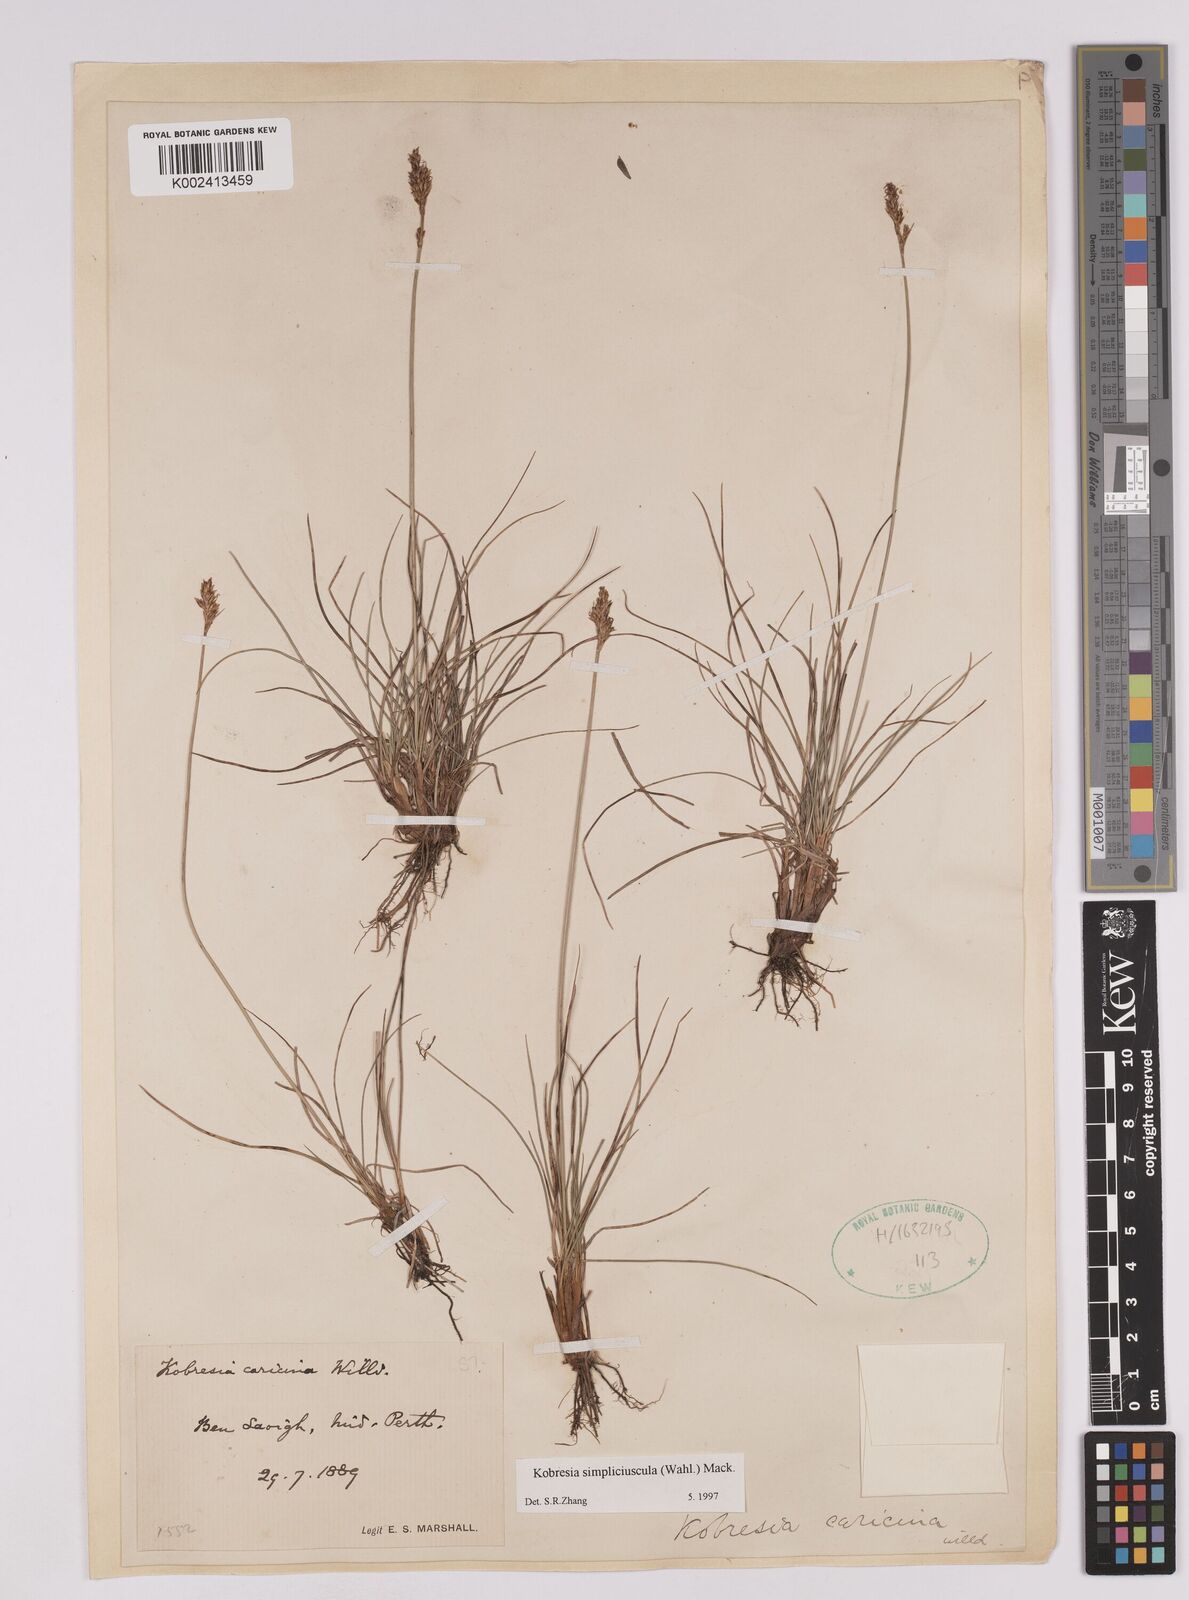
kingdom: Plantae
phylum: Tracheophyta
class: Liliopsida
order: Poales
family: Cyperaceae
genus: Carex
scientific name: Carex simpliciuscula
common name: Simple bog sedge
